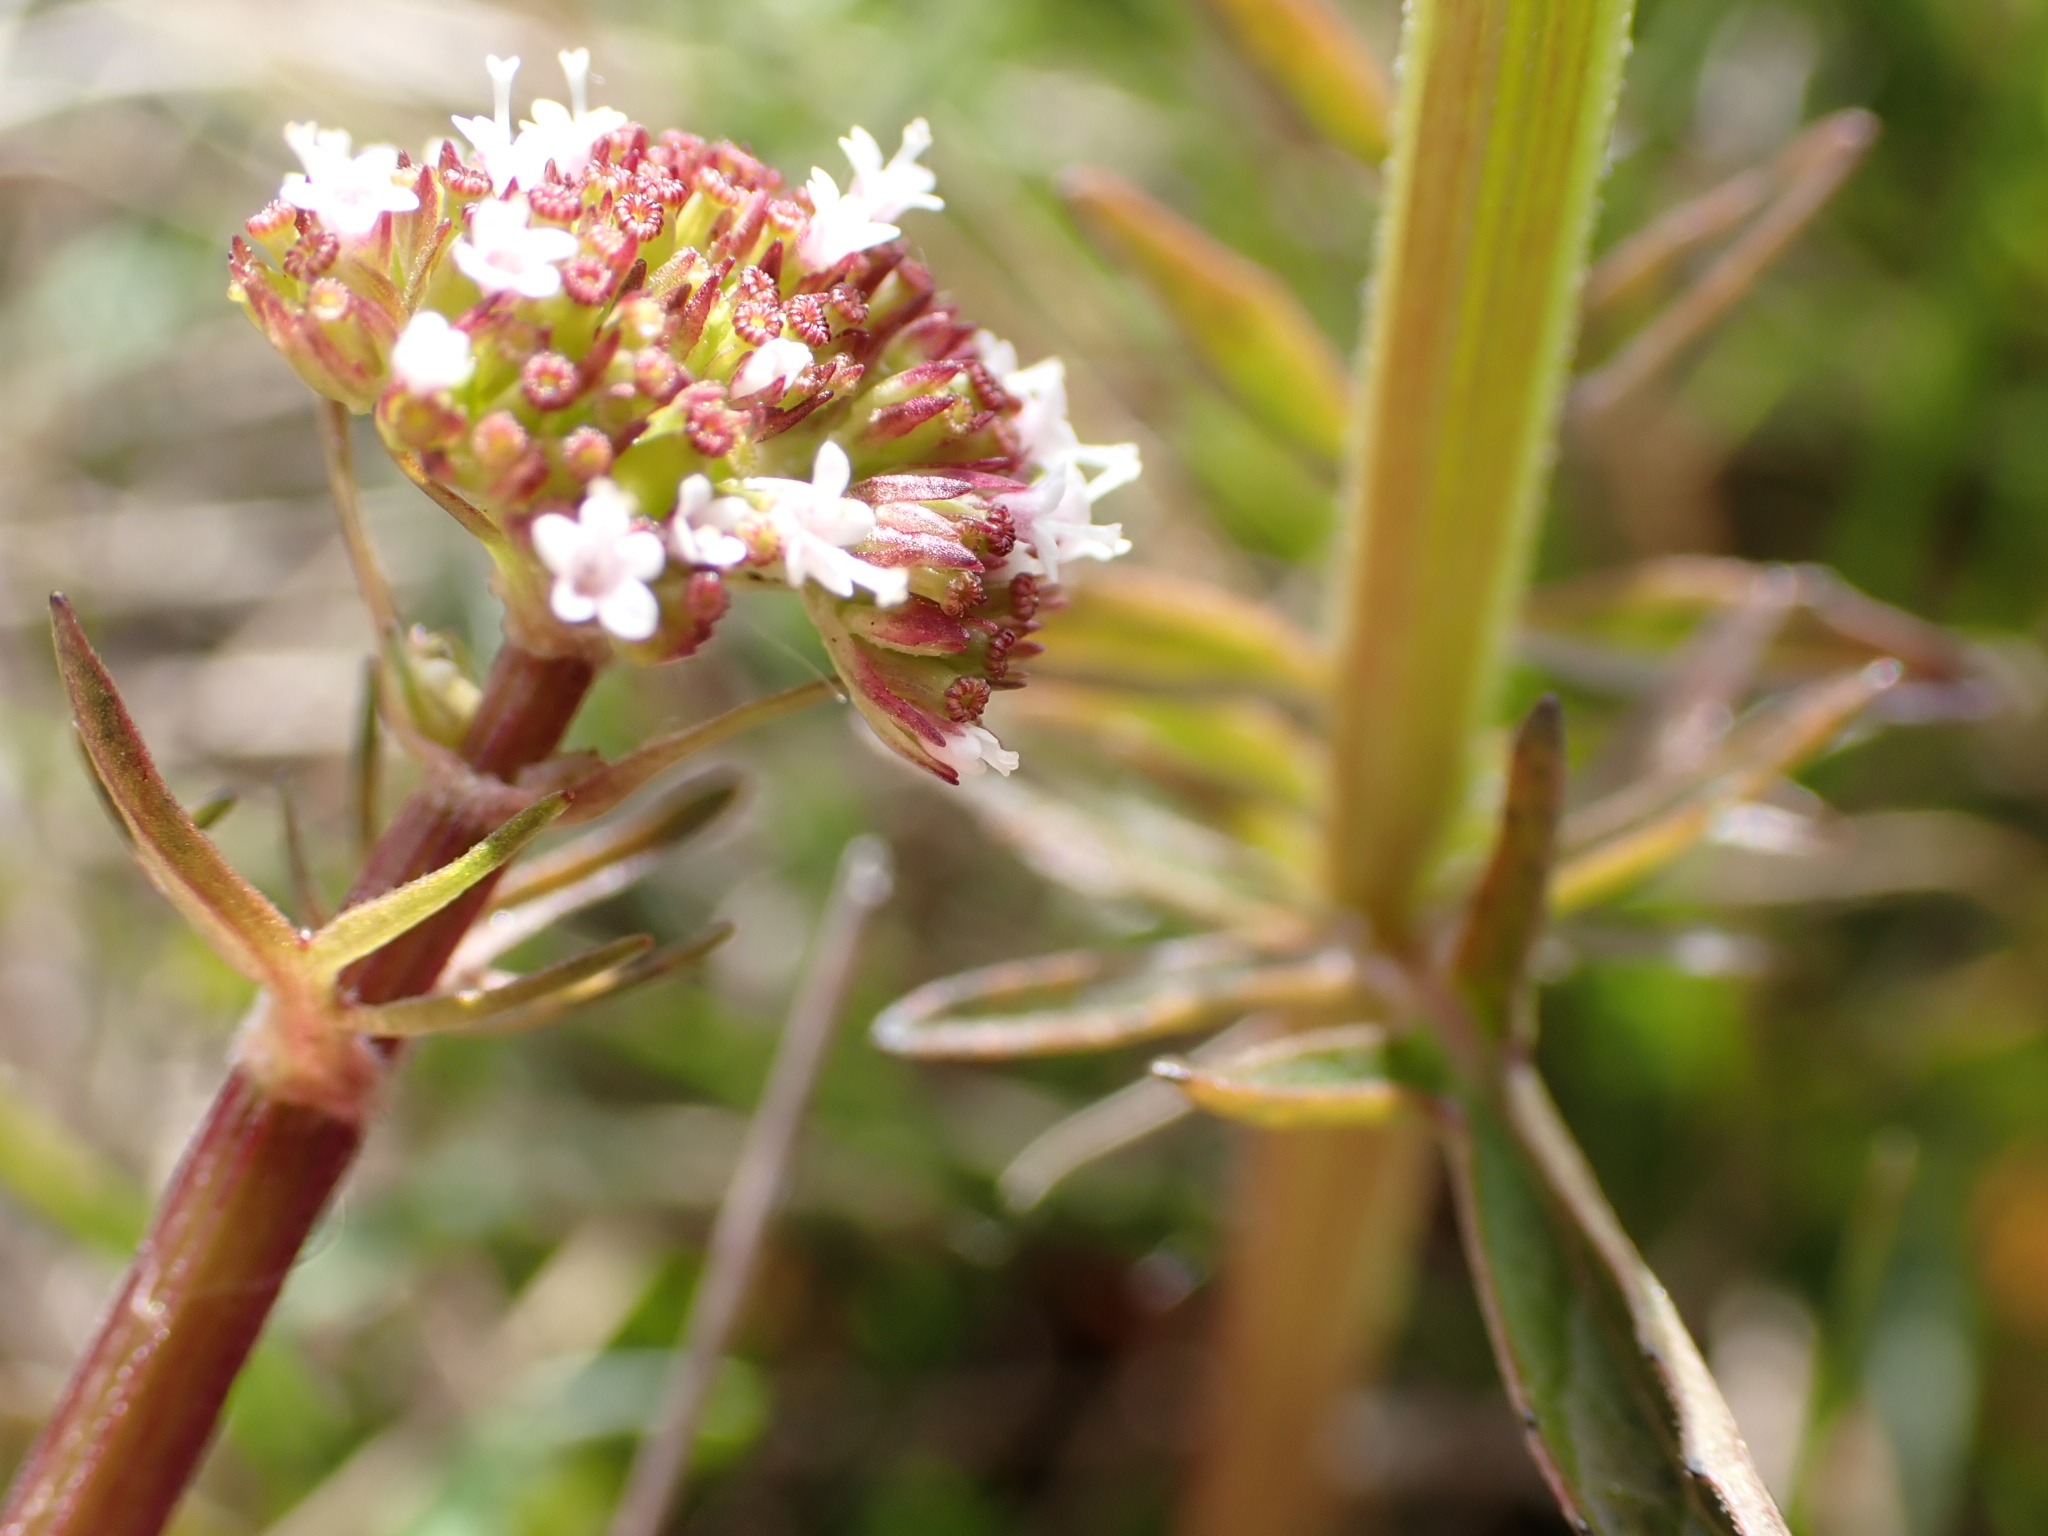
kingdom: Plantae
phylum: Tracheophyta
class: Magnoliopsida
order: Dipsacales
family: Caprifoliaceae
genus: Valeriana
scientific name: Valeriana dioica
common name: Tvebo baldrian
